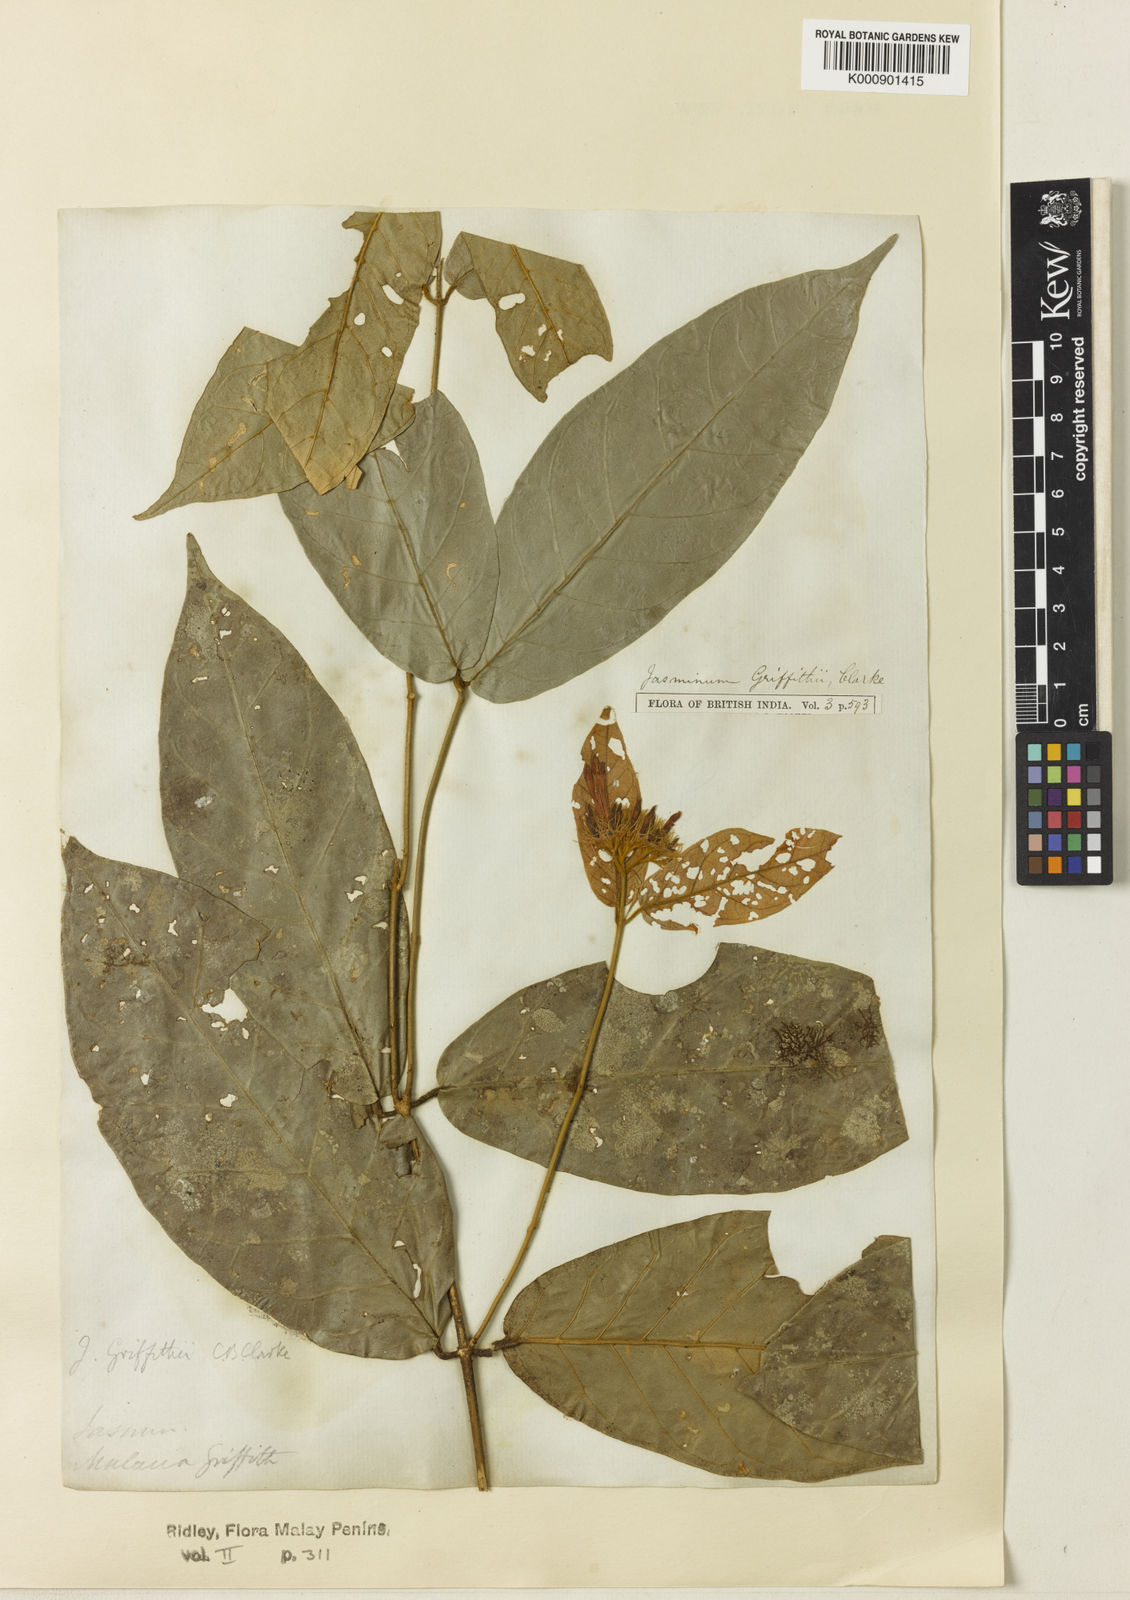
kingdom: Plantae
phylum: Tracheophyta
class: Magnoliopsida
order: Lamiales
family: Oleaceae
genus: Jasminum
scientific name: Jasminum griffithii
